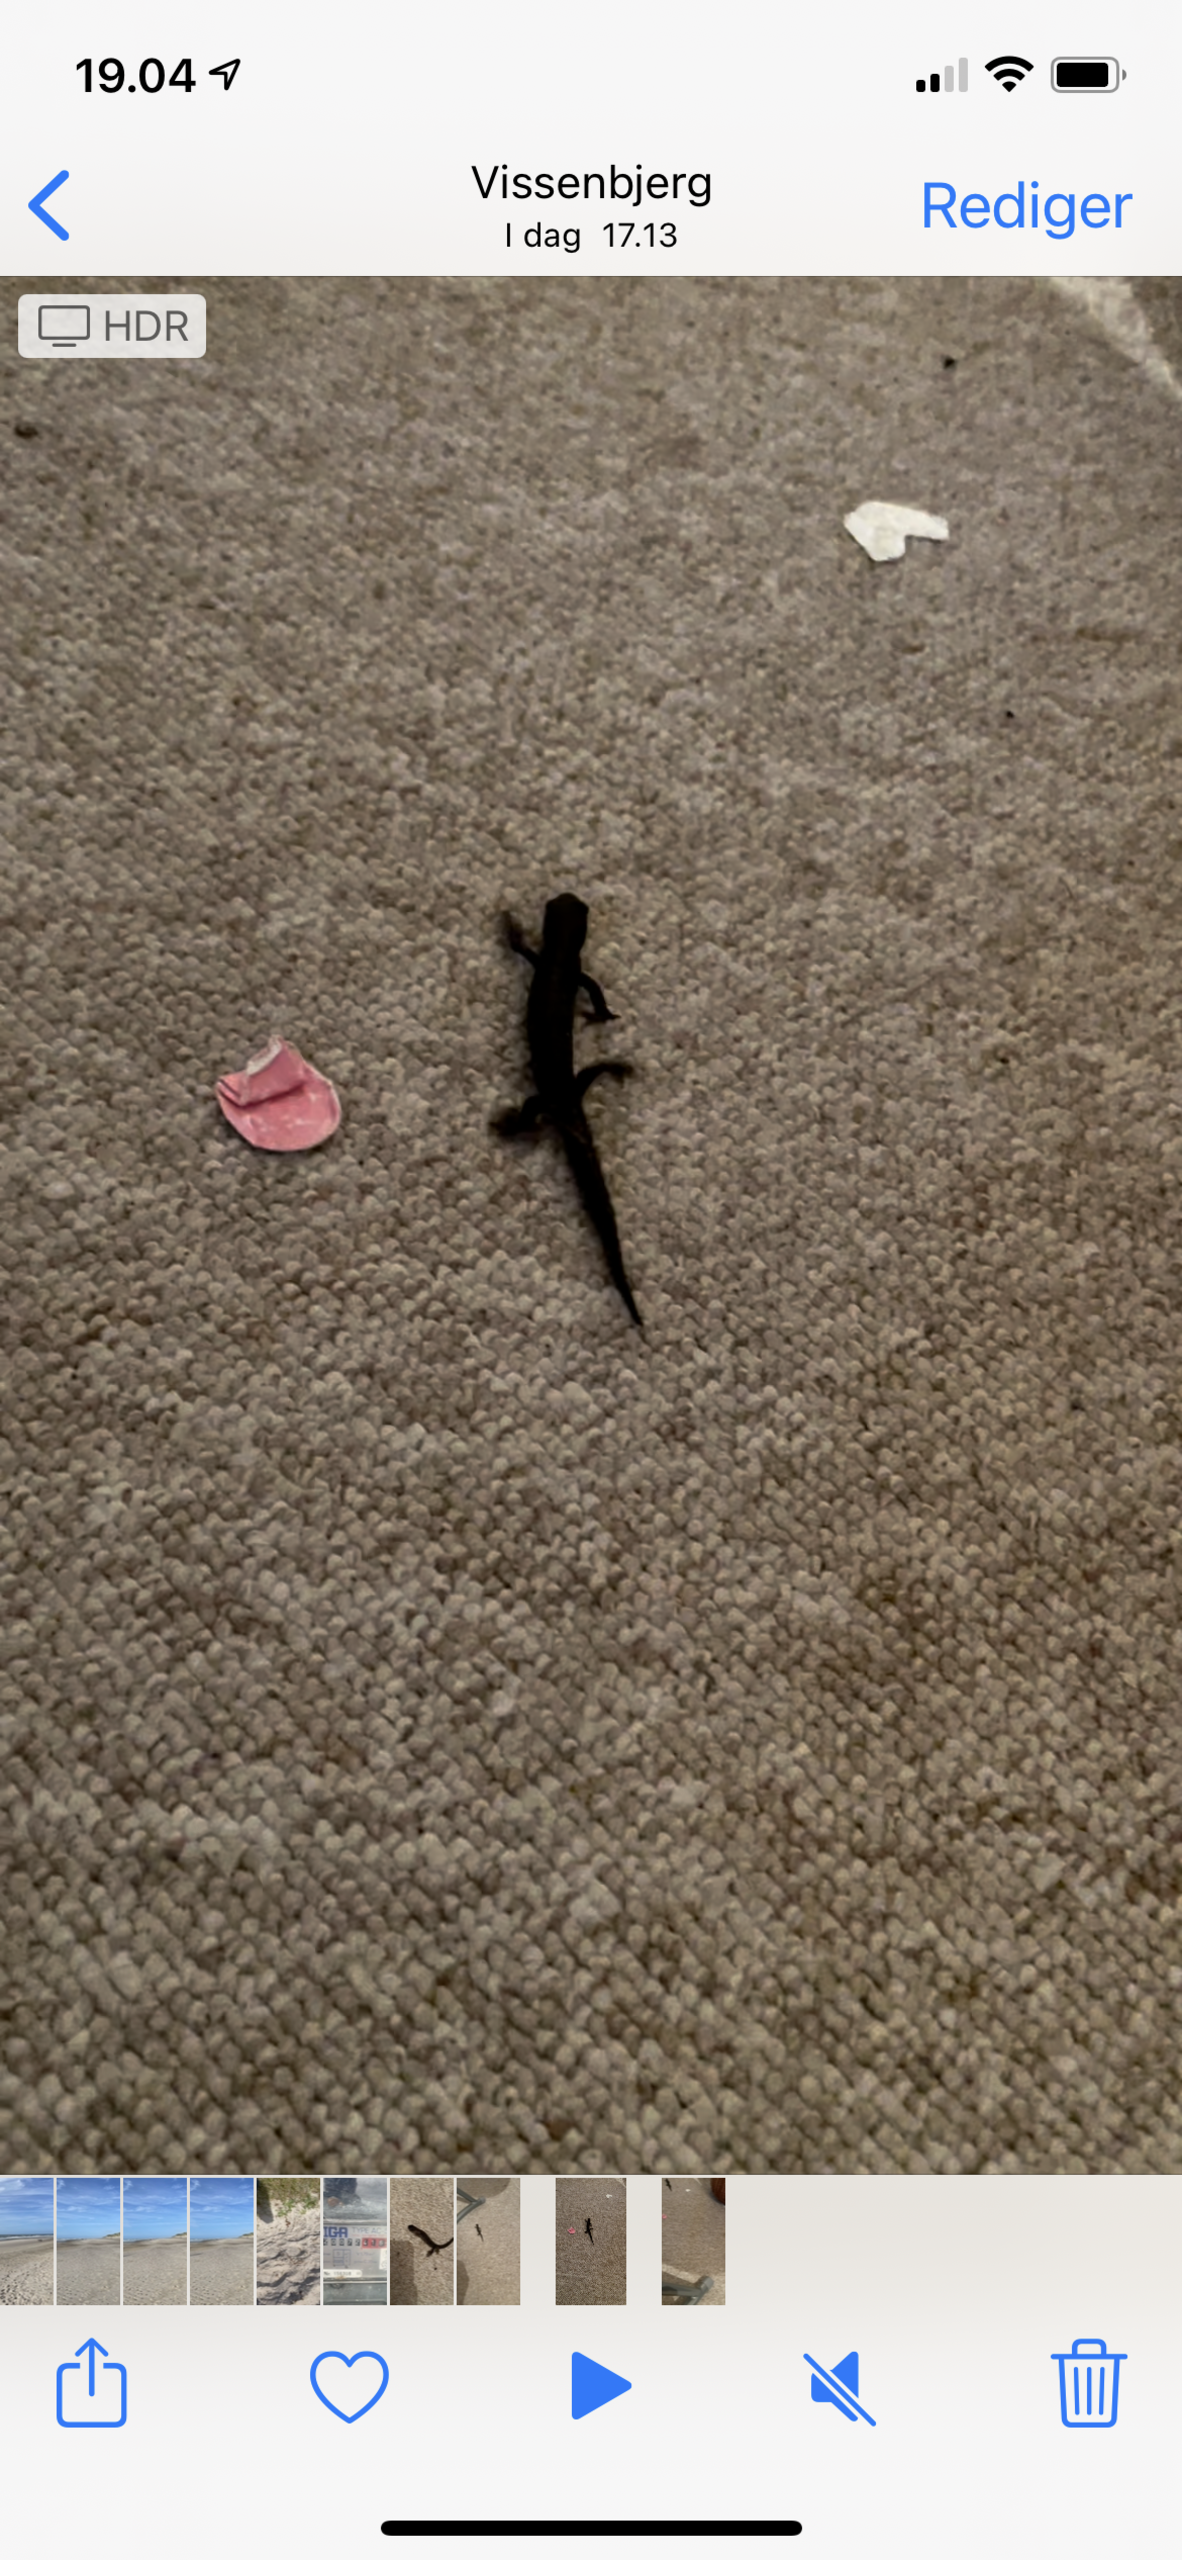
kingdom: Animalia
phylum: Chordata
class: Amphibia
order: Caudata
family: Salamandridae
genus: Triturus
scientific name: Triturus cristatus
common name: Stor vandsalamander
